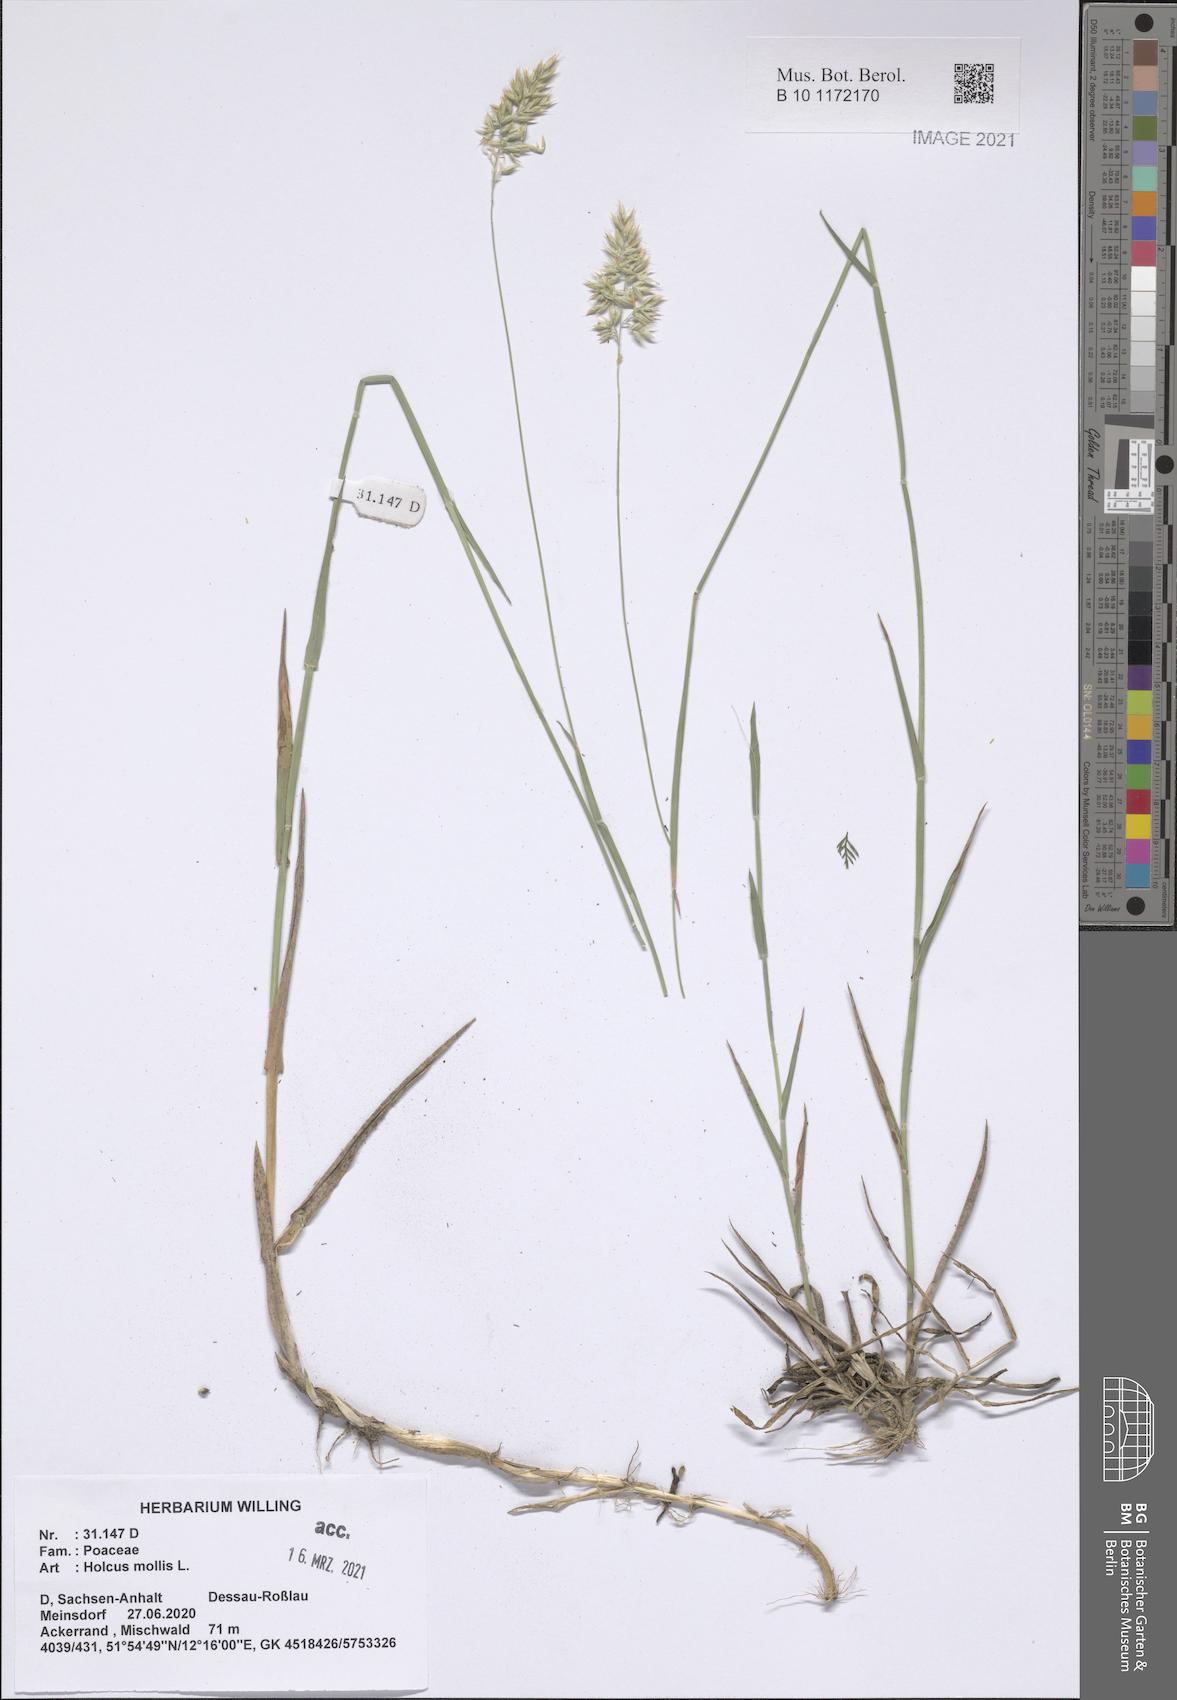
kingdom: Plantae
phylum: Tracheophyta
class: Liliopsida
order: Poales
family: Poaceae
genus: Holcus
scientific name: Holcus mollis
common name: Creeping velvetgrass
